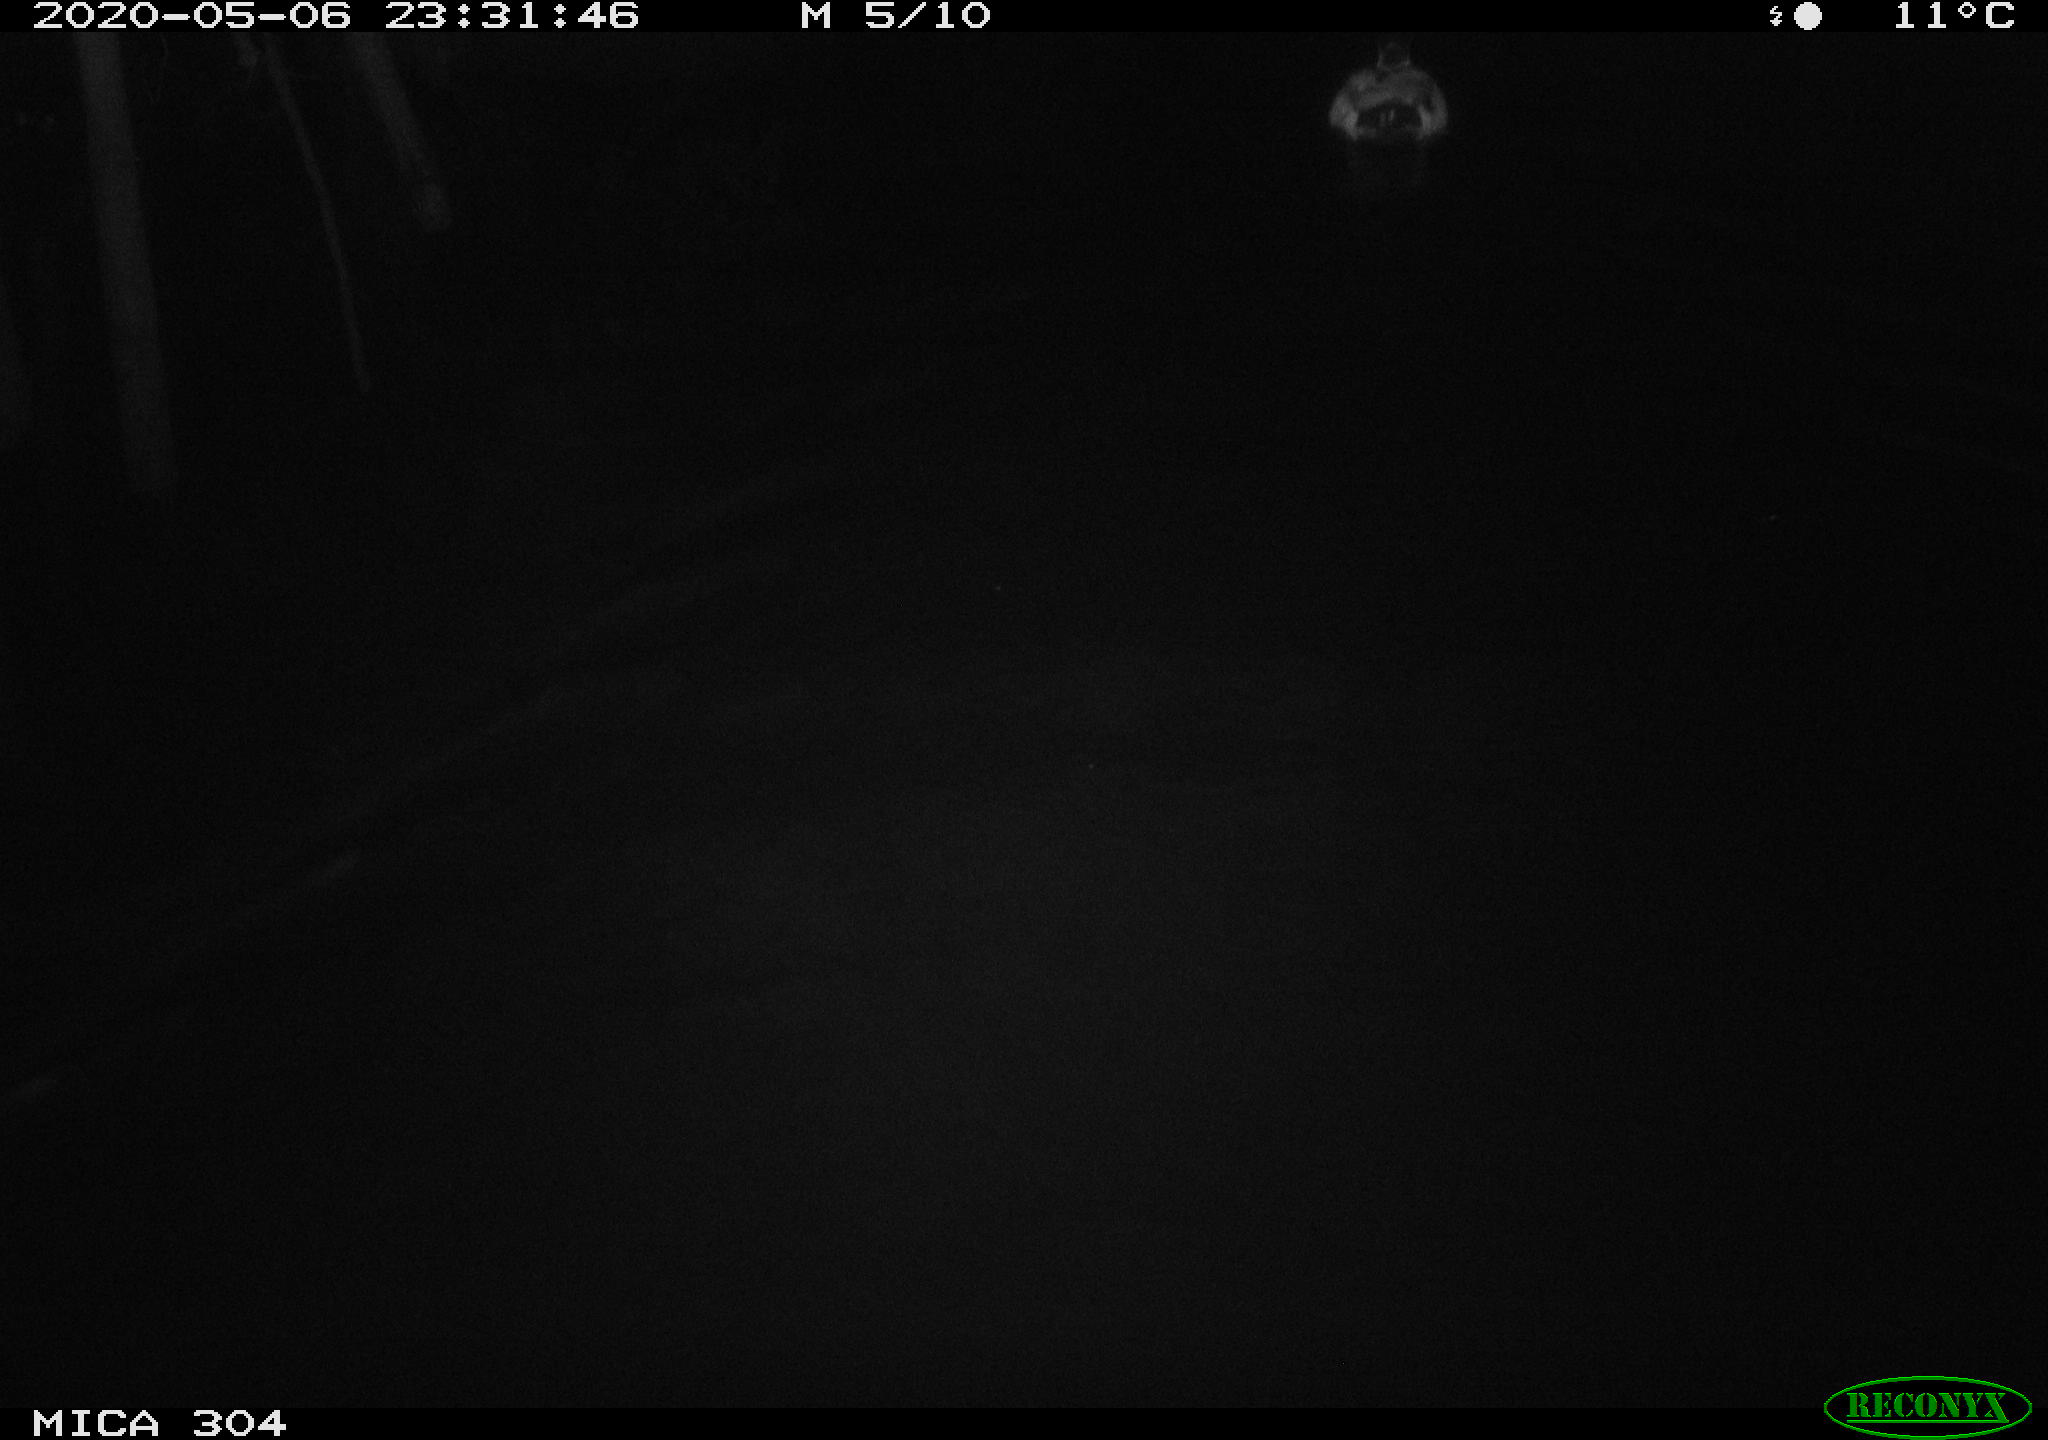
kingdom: Animalia
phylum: Chordata
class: Aves
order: Anseriformes
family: Anatidae
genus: Anas
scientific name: Anas platyrhynchos
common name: Mallard
